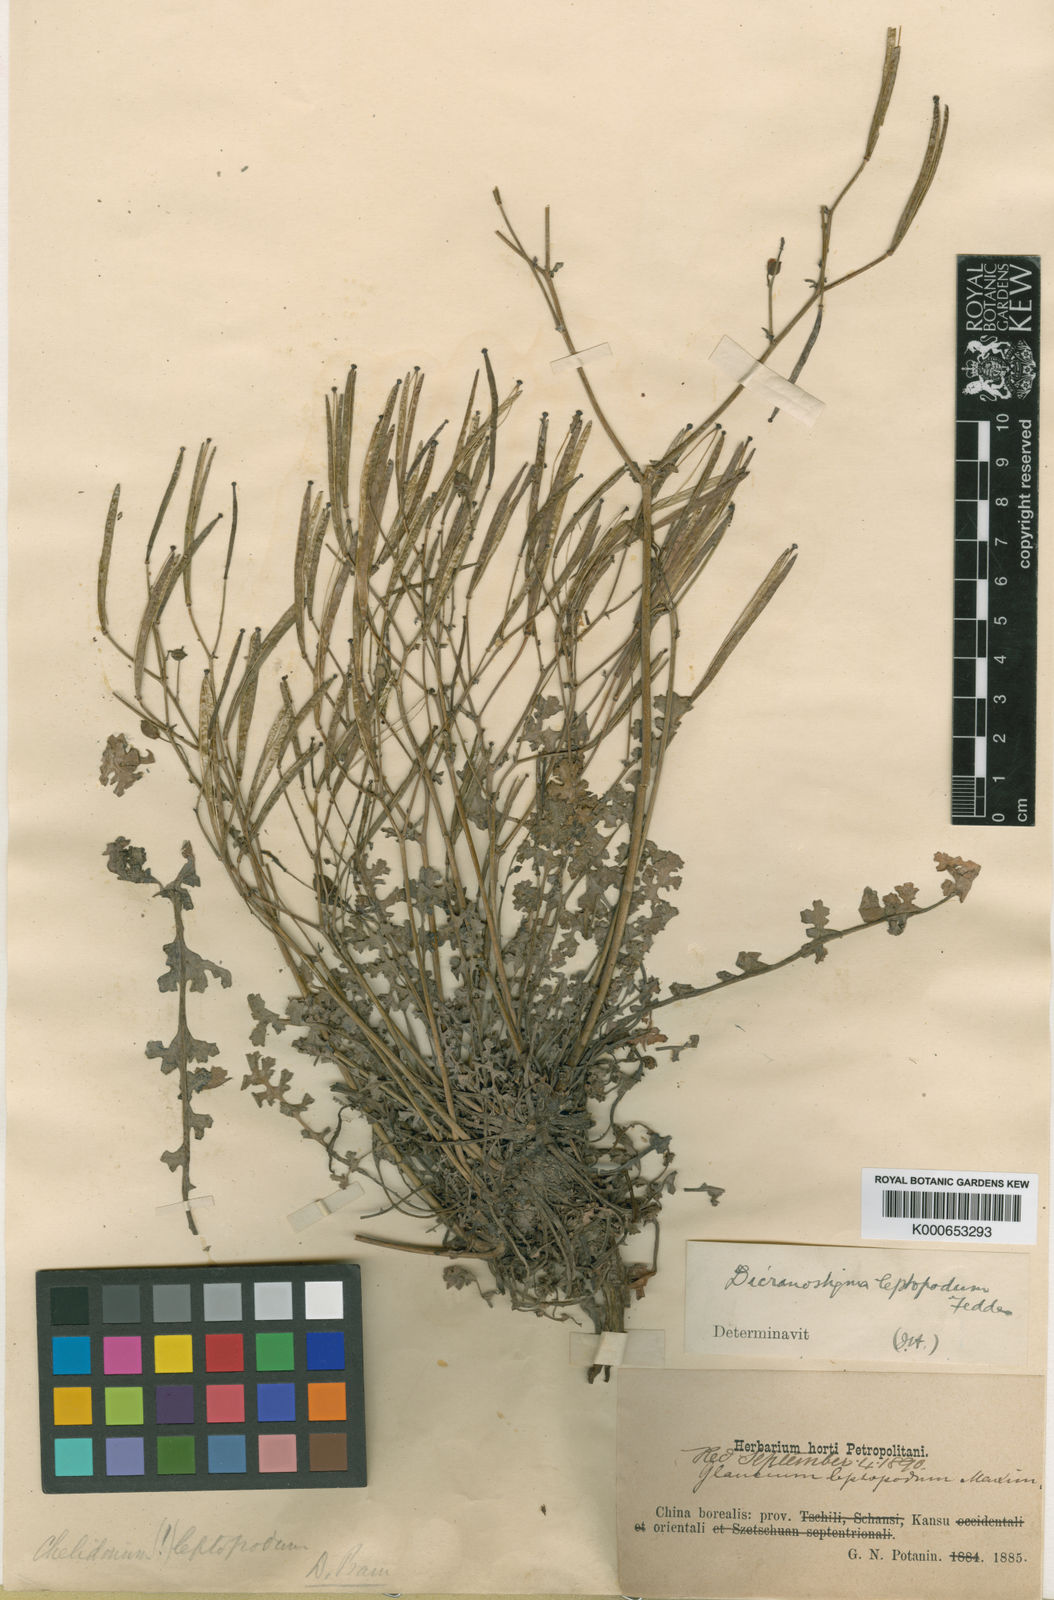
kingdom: Plantae
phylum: Tracheophyta
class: Magnoliopsida
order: Ranunculales
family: Papaveraceae
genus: Dicranostigma
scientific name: Dicranostigma leptopodum
